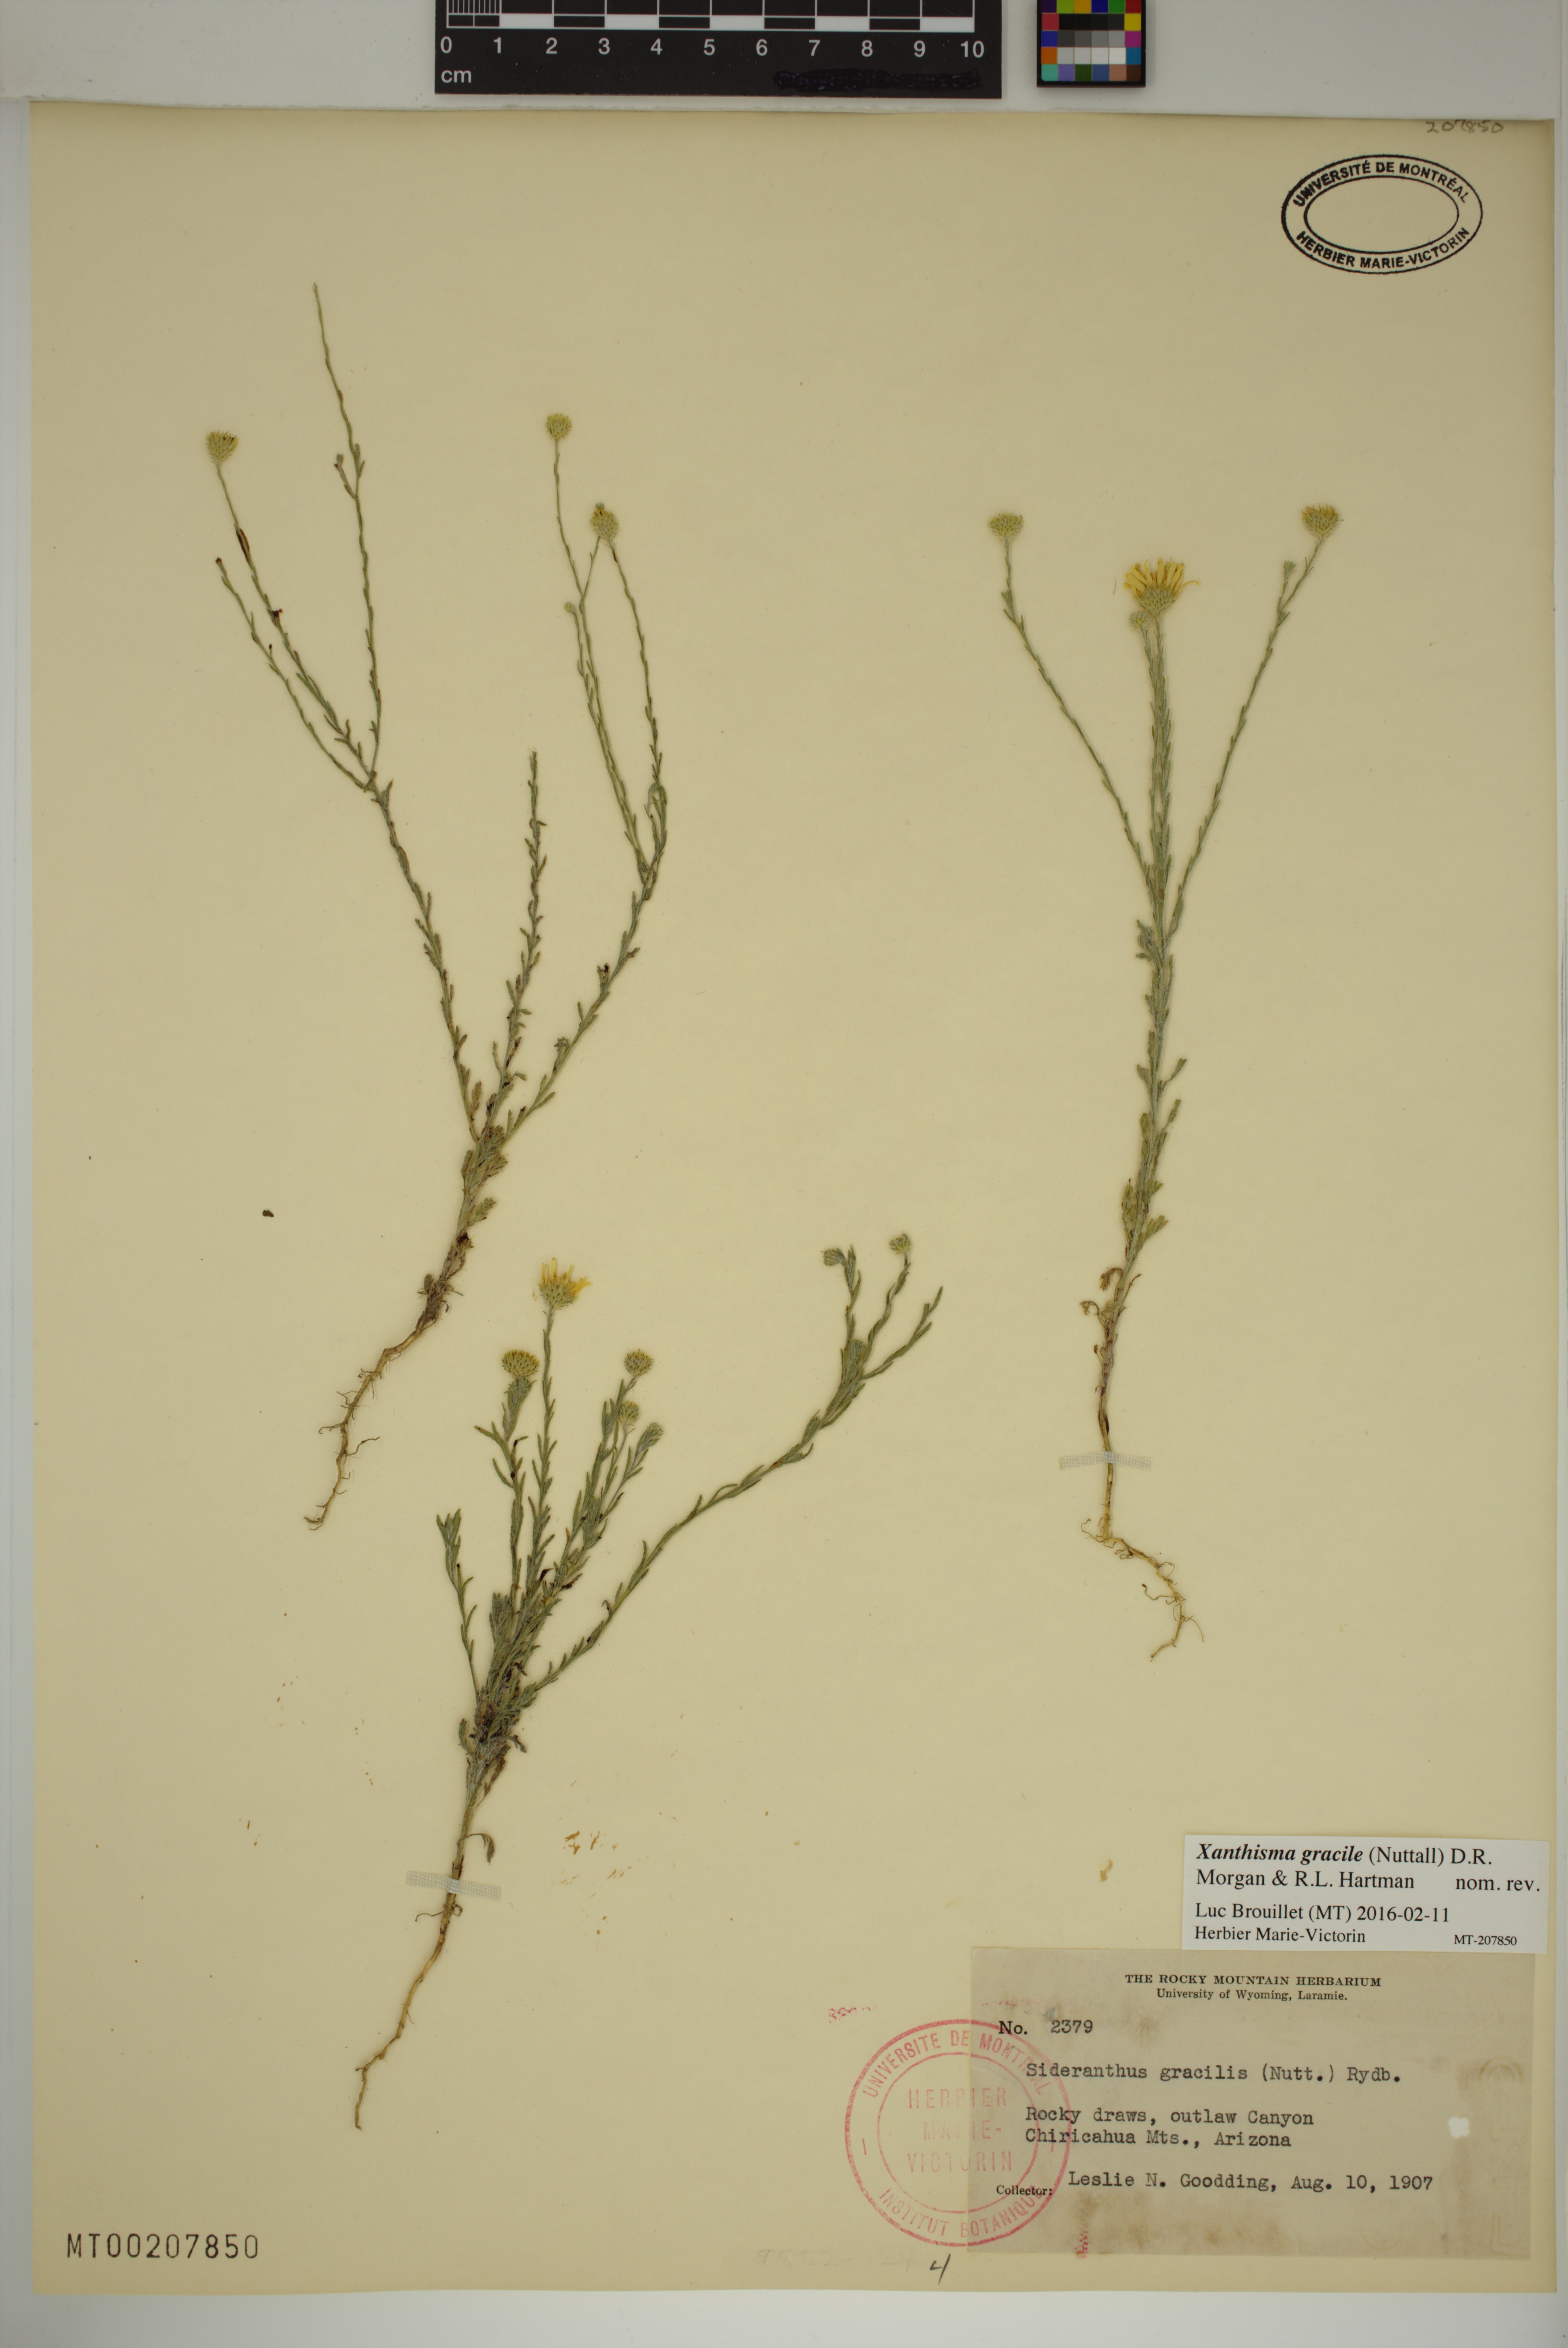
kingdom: Plantae
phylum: Tracheophyta
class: Magnoliopsida
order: Asterales
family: Asteraceae
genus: Xanthisma
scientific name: Xanthisma gracile
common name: Slender goldenweed
